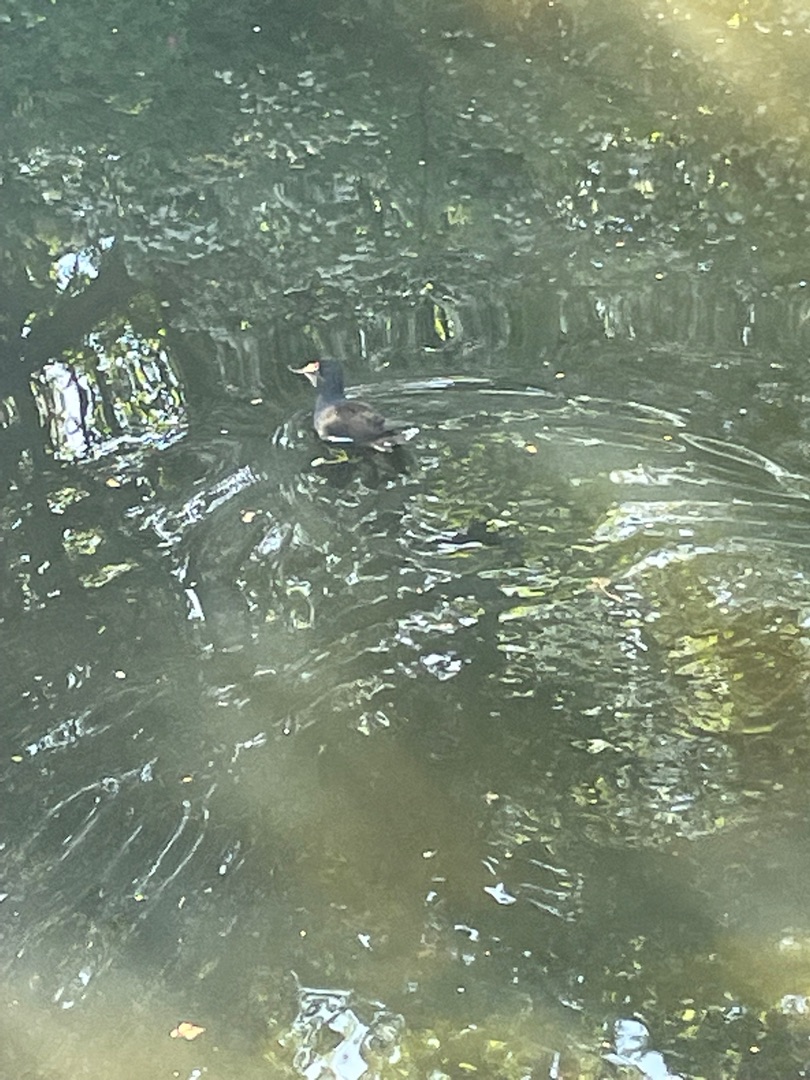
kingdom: Animalia
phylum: Chordata
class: Aves
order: Gruiformes
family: Rallidae
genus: Gallinula
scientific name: Gallinula chloropus
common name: Grønbenet rørhøne
